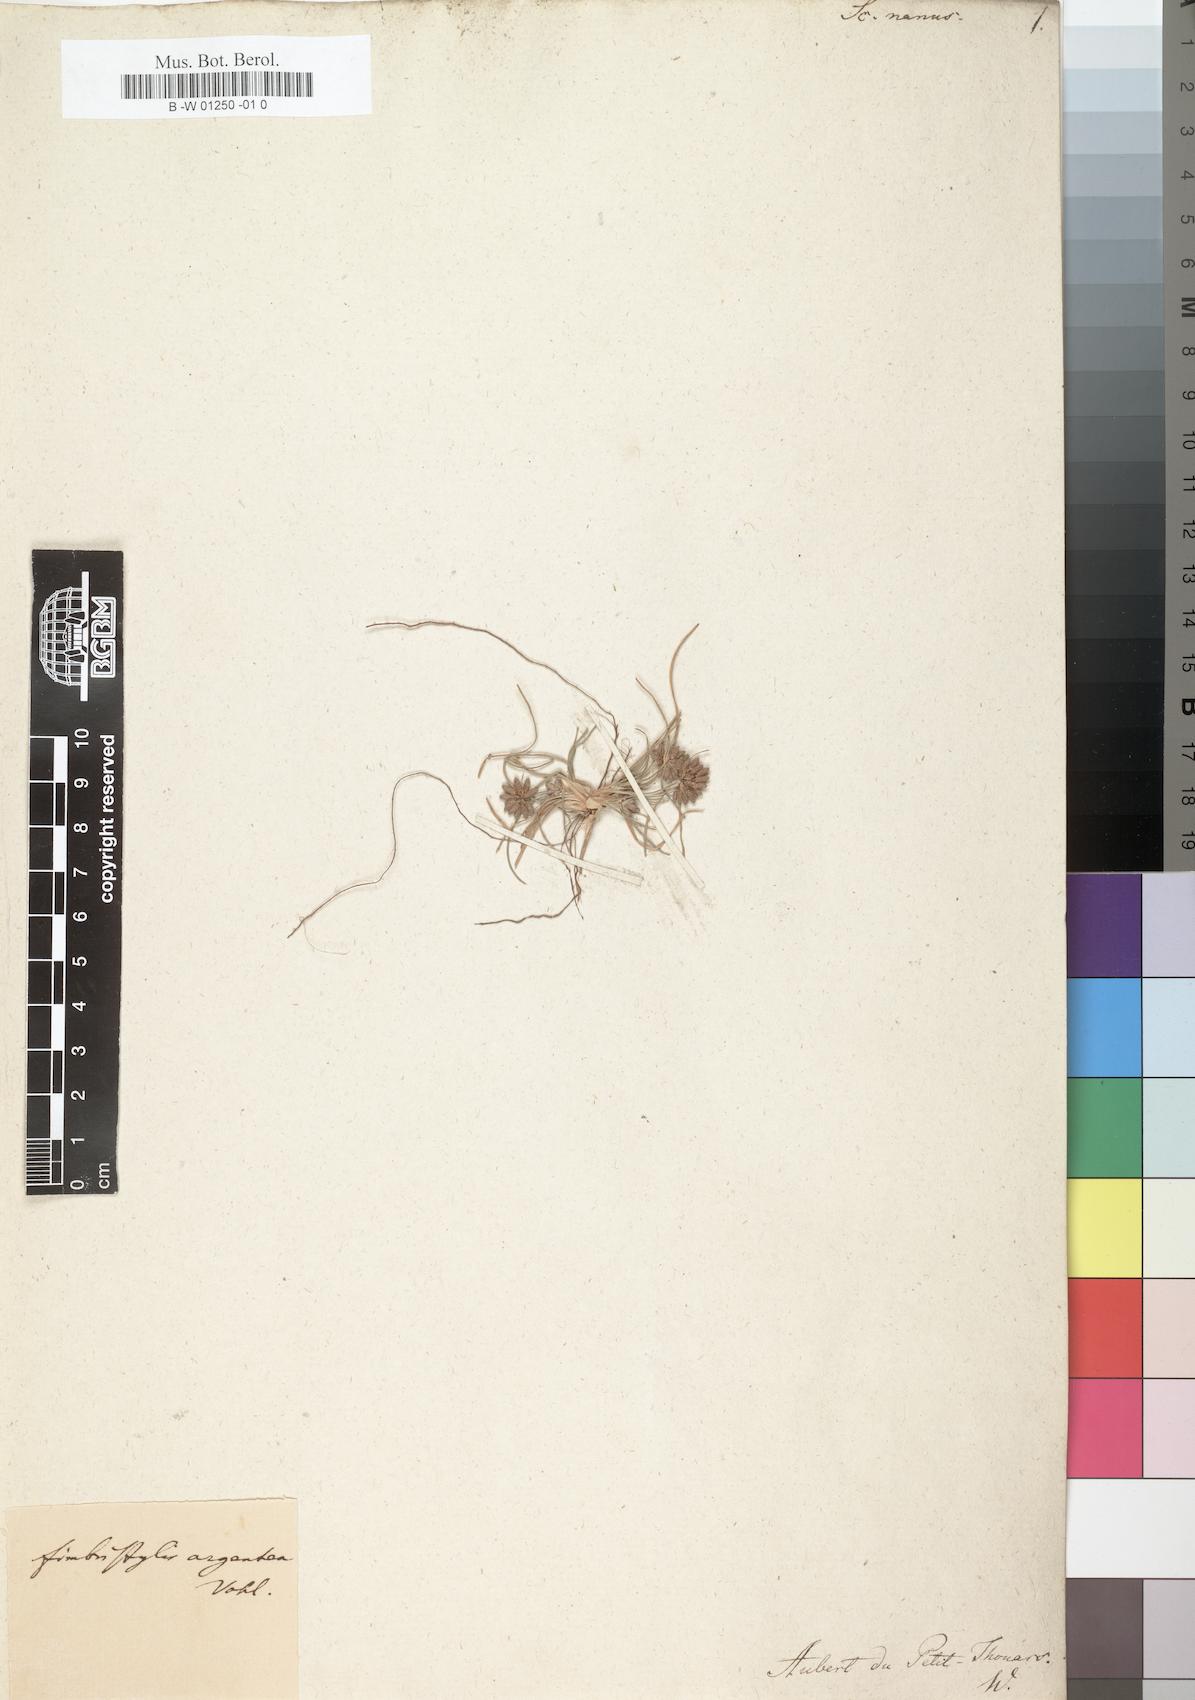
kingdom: Plantae
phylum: Tracheophyta
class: Liliopsida
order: Poales
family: Cyperaceae
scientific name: Cyperaceae
